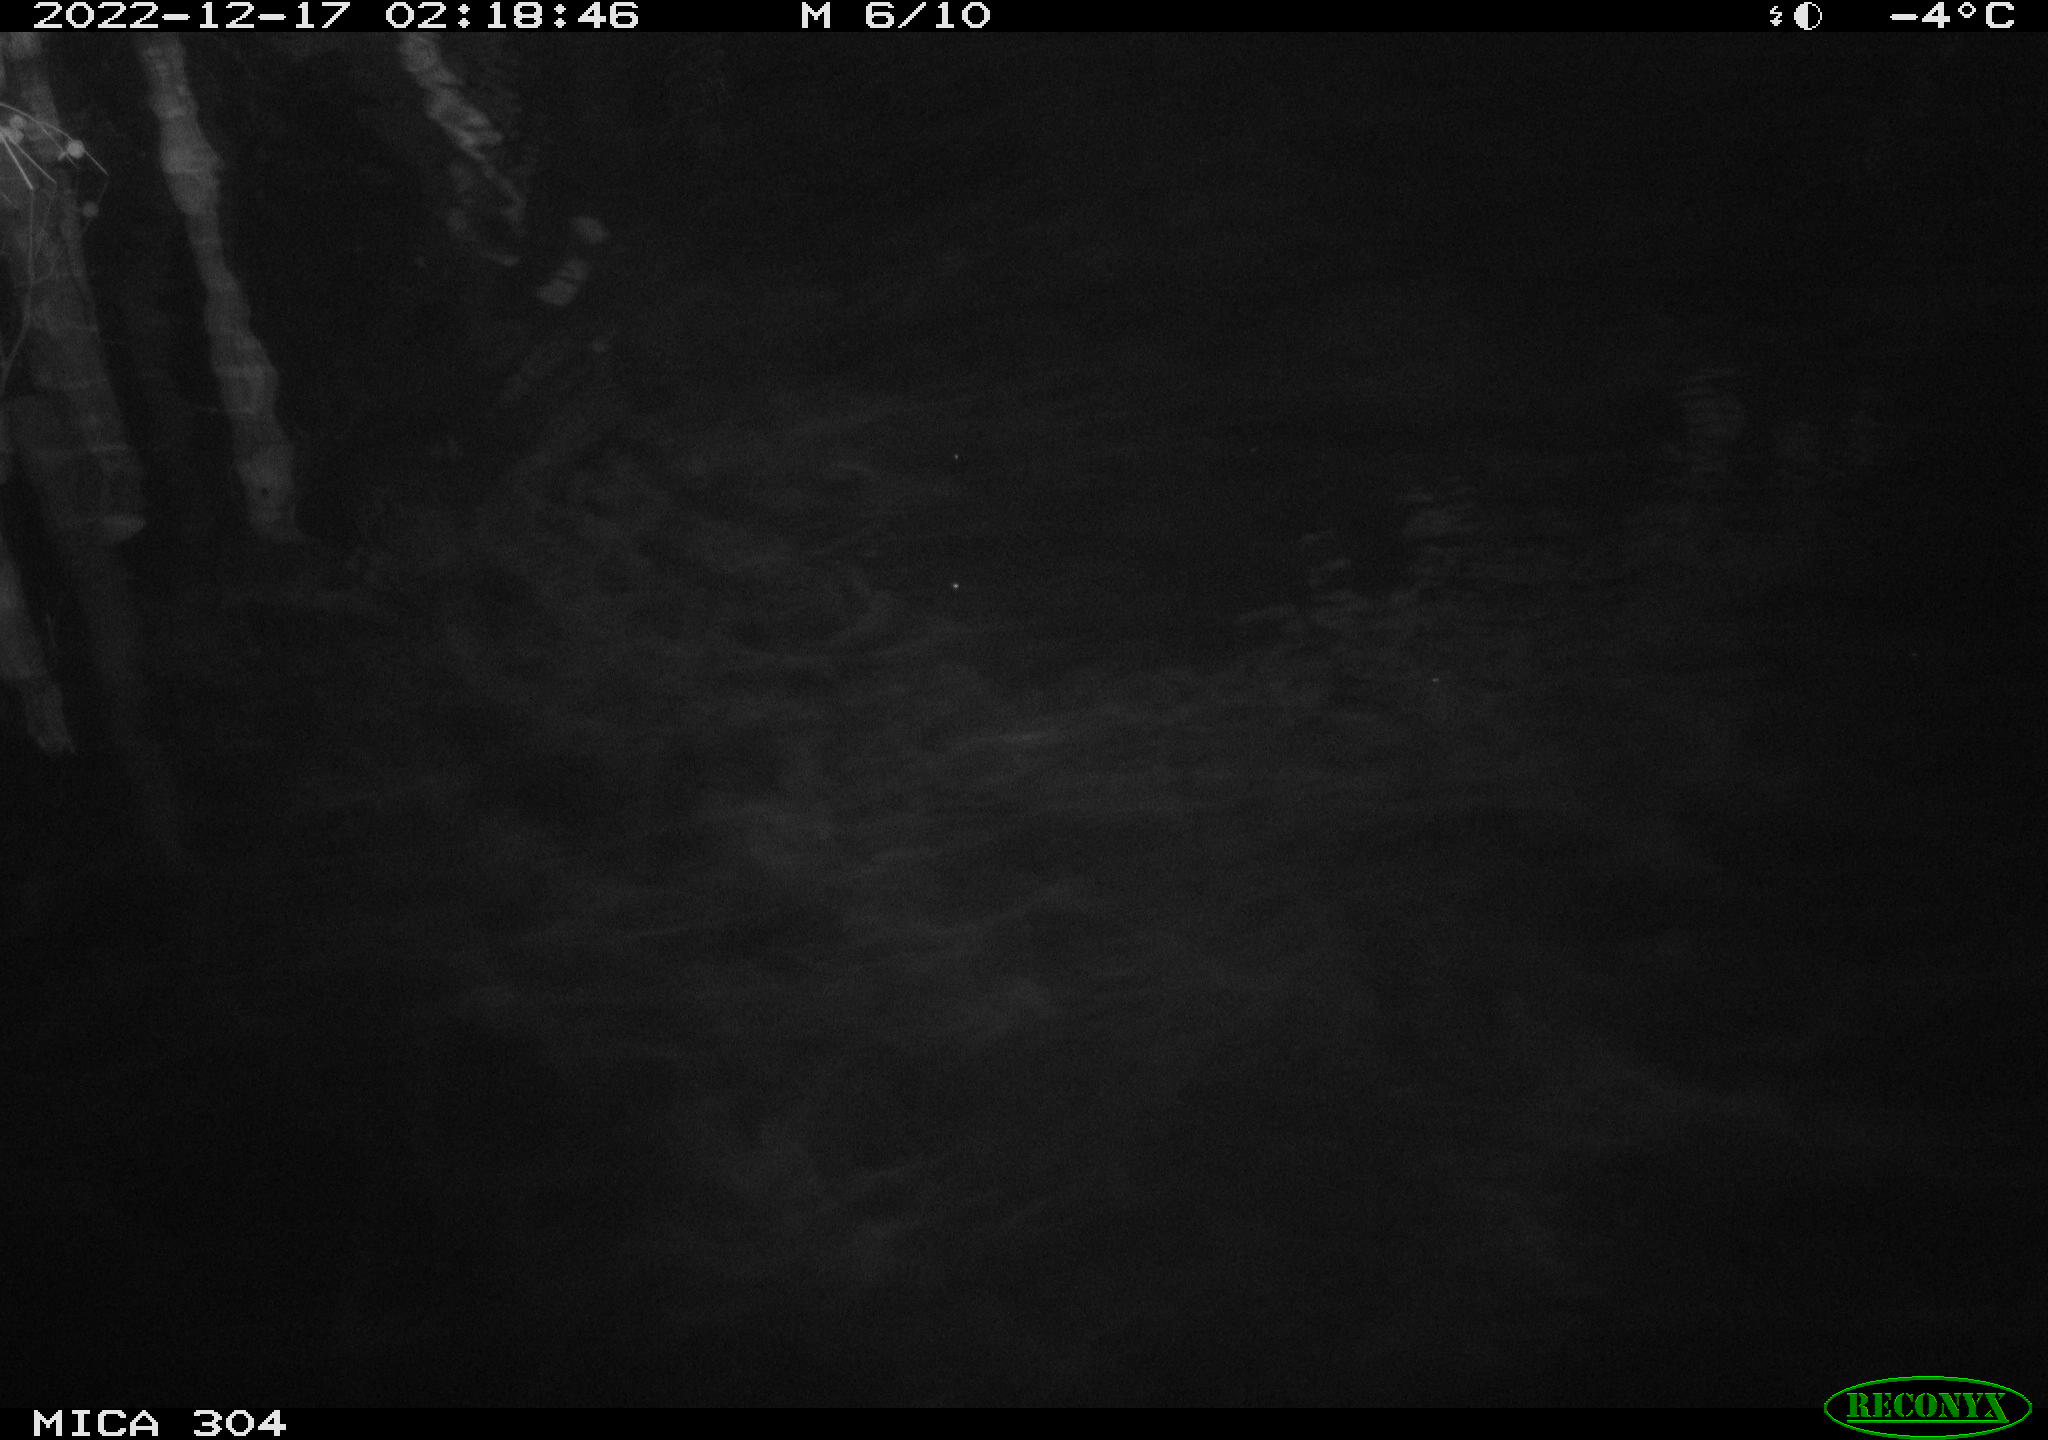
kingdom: Animalia
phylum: Chordata
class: Mammalia
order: Rodentia
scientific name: Rodentia
